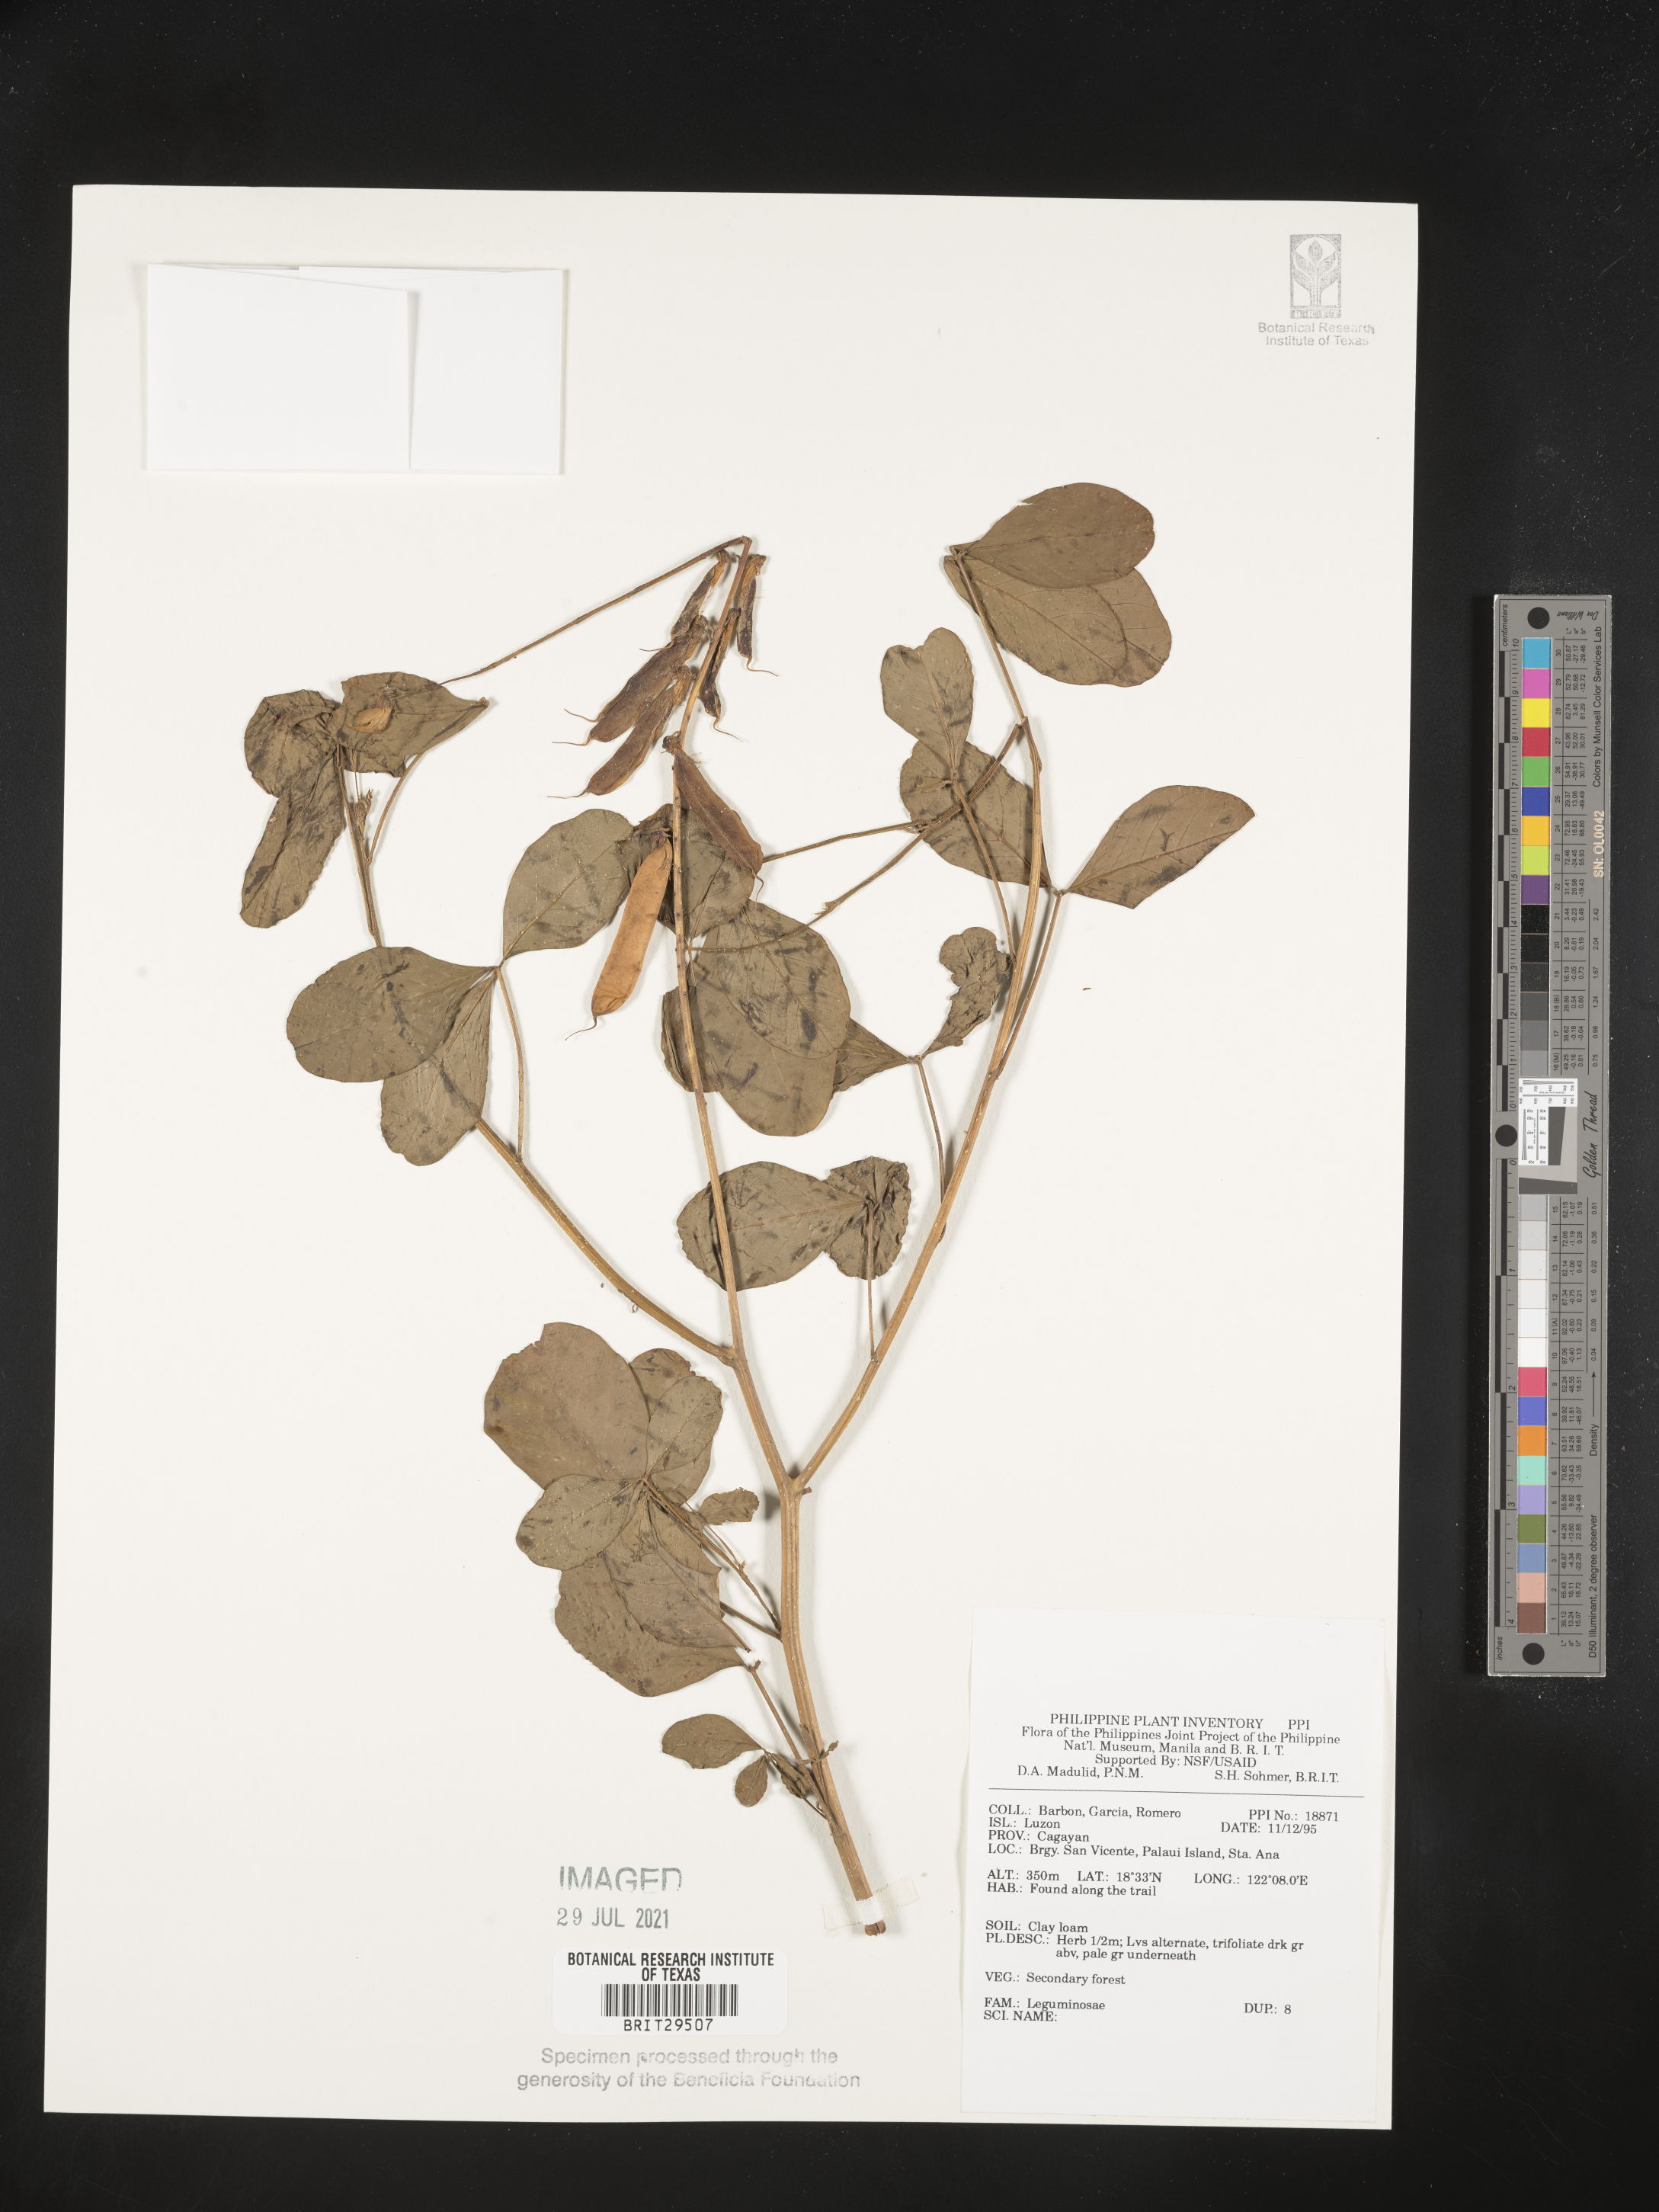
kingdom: Plantae
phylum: Tracheophyta
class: Magnoliopsida
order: Fabales
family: Fabaceae
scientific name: Fabaceae
